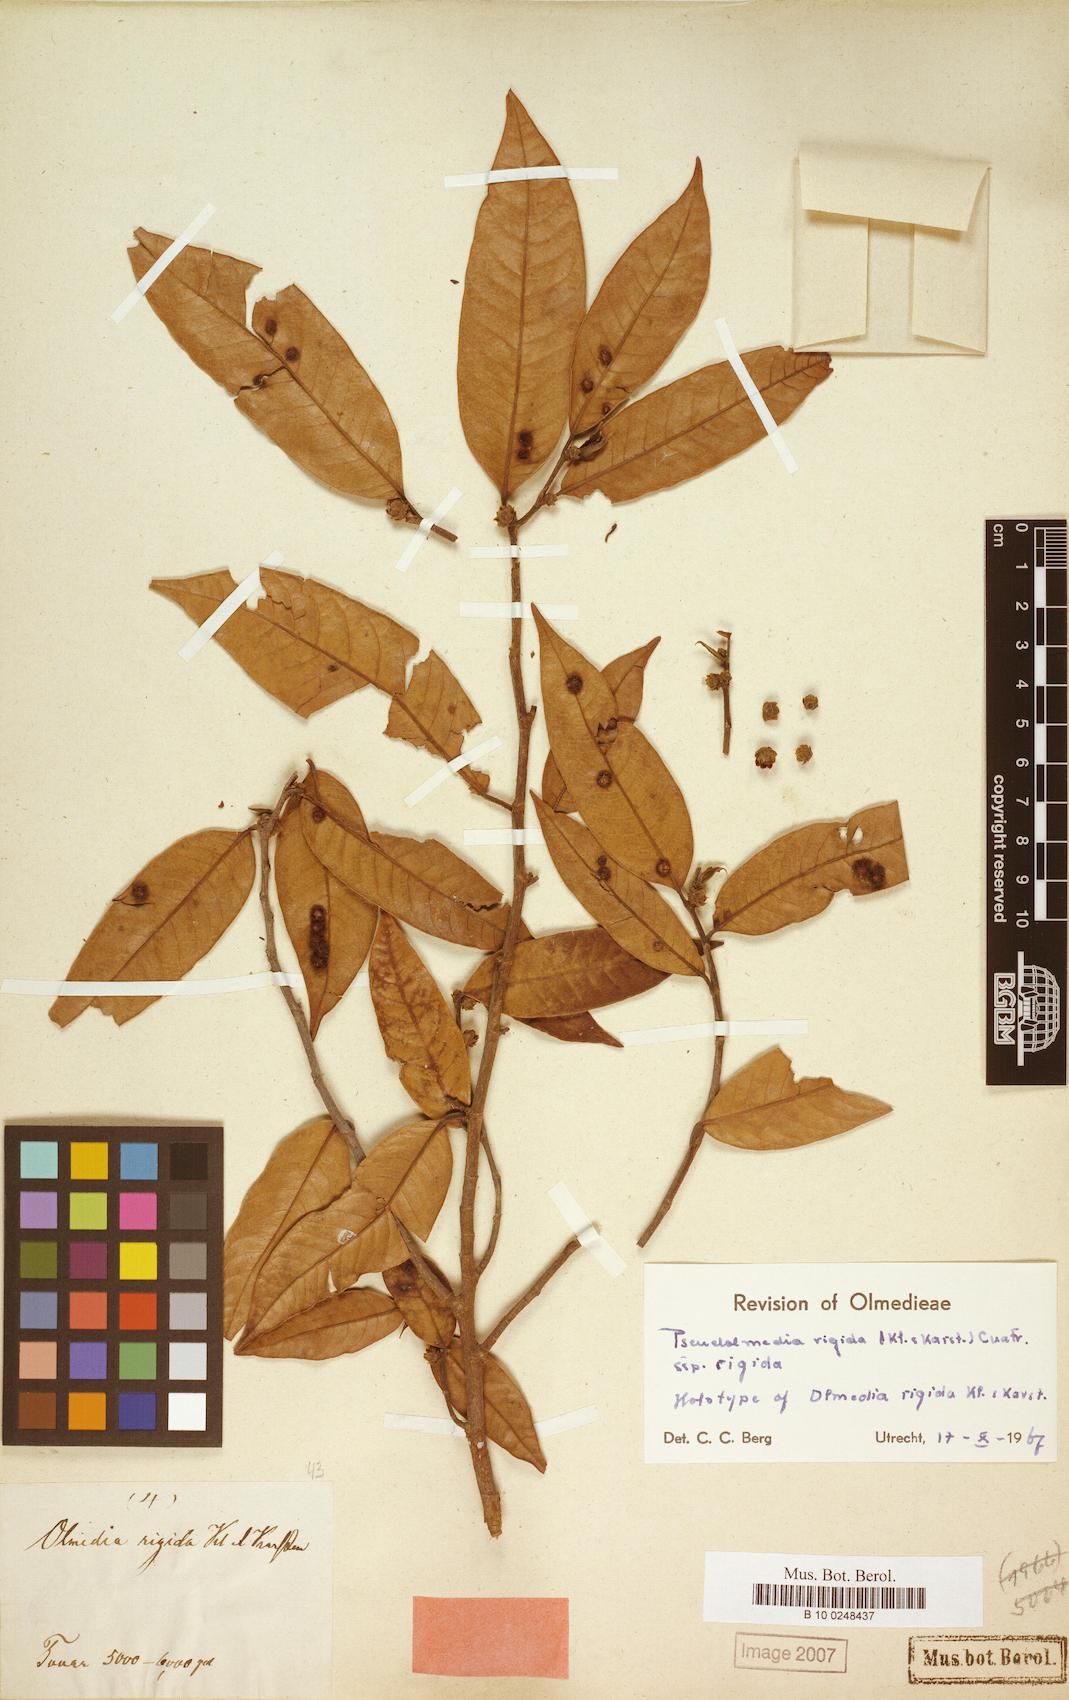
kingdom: Plantae
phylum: Tracheophyta
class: Magnoliopsida
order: Rosales
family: Moraceae
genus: Pseudolmedia
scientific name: Pseudolmedia rigida
